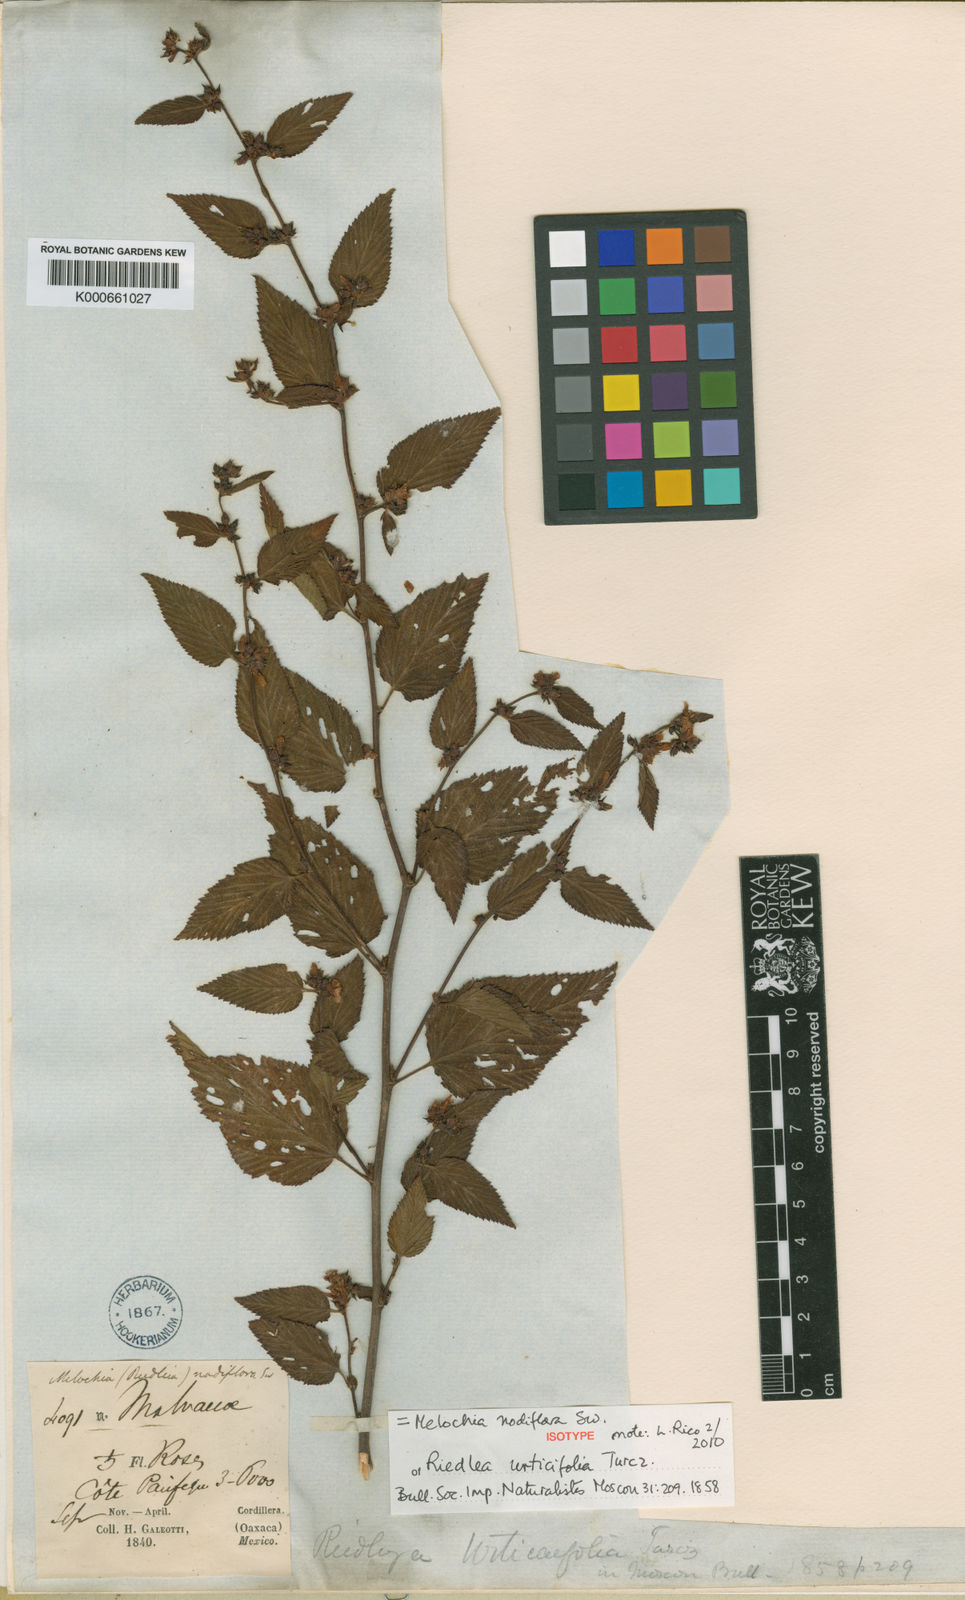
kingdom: Plantae
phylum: Tracheophyta
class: Magnoliopsida
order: Malvales
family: Malvaceae
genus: Melochia
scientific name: Melochia nodiflora
